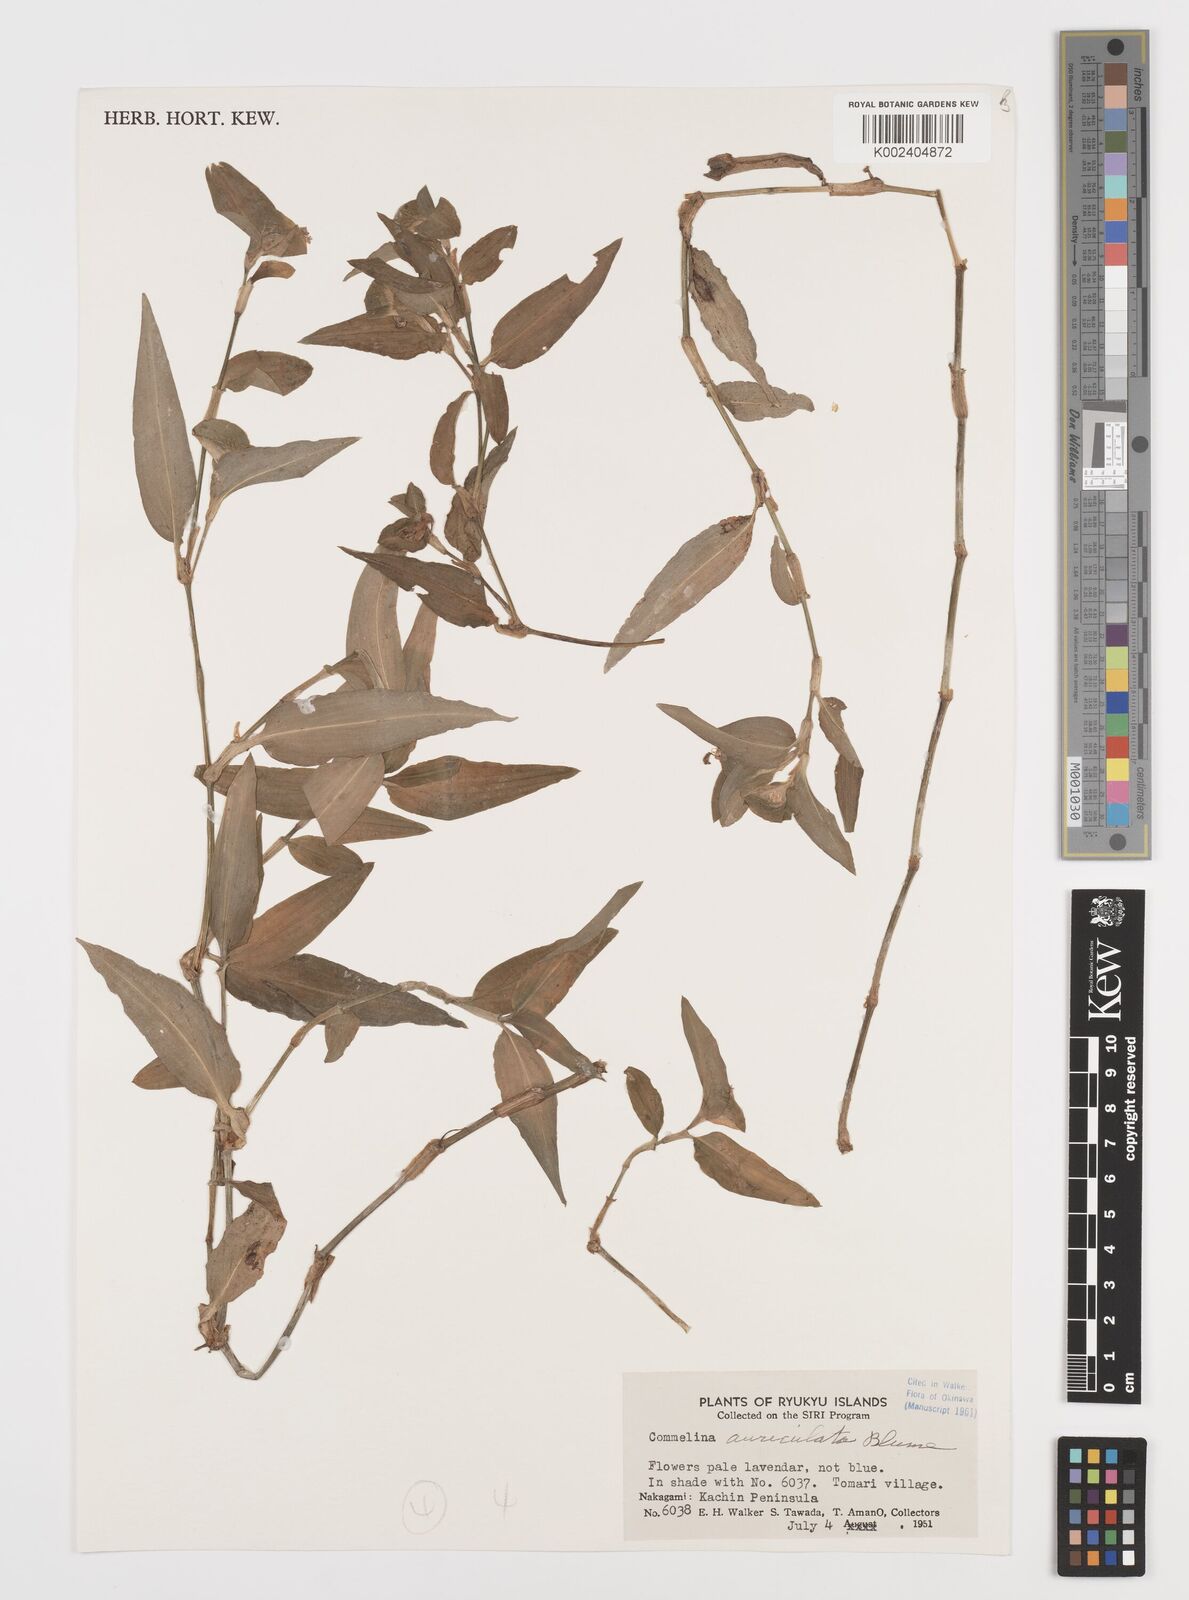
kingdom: Plantae
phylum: Tracheophyta
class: Liliopsida
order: Commelinales
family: Commelinaceae
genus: Commelina
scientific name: Commelina auriculata
